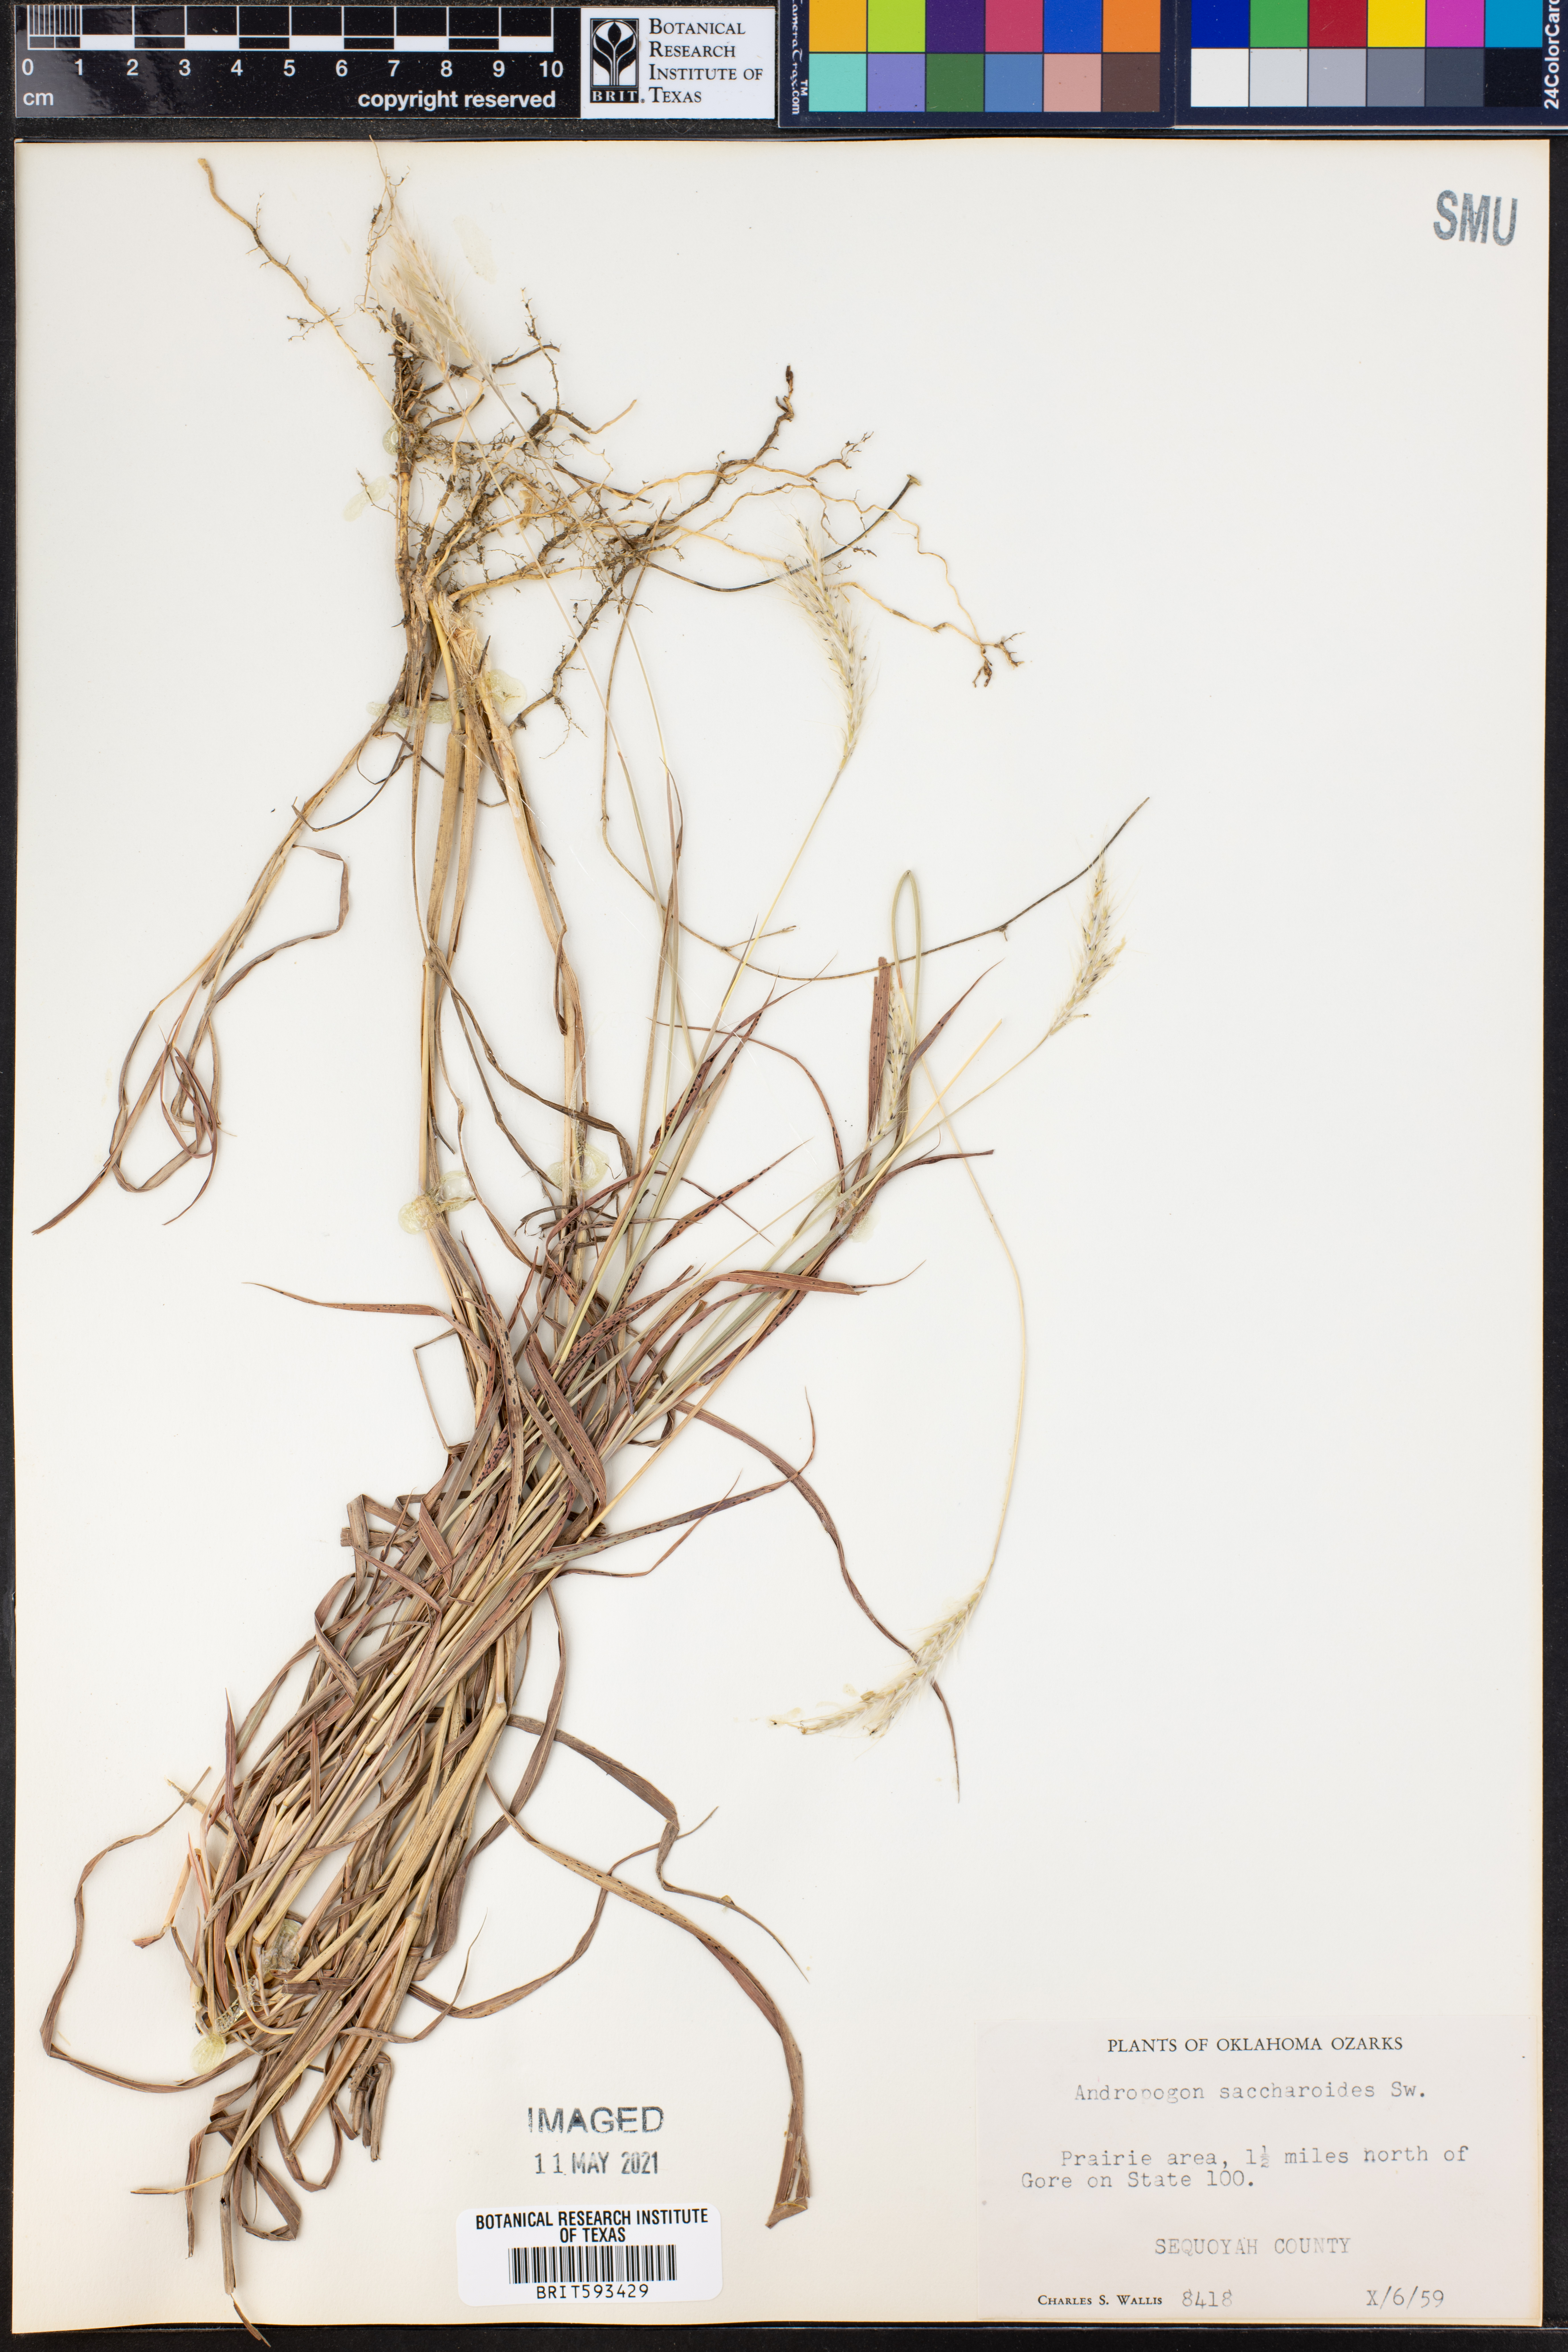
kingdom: Plantae
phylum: Tracheophyta
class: Liliopsida
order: Poales
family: Poaceae
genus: Bothriochloa
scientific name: Bothriochloa saccharoides
